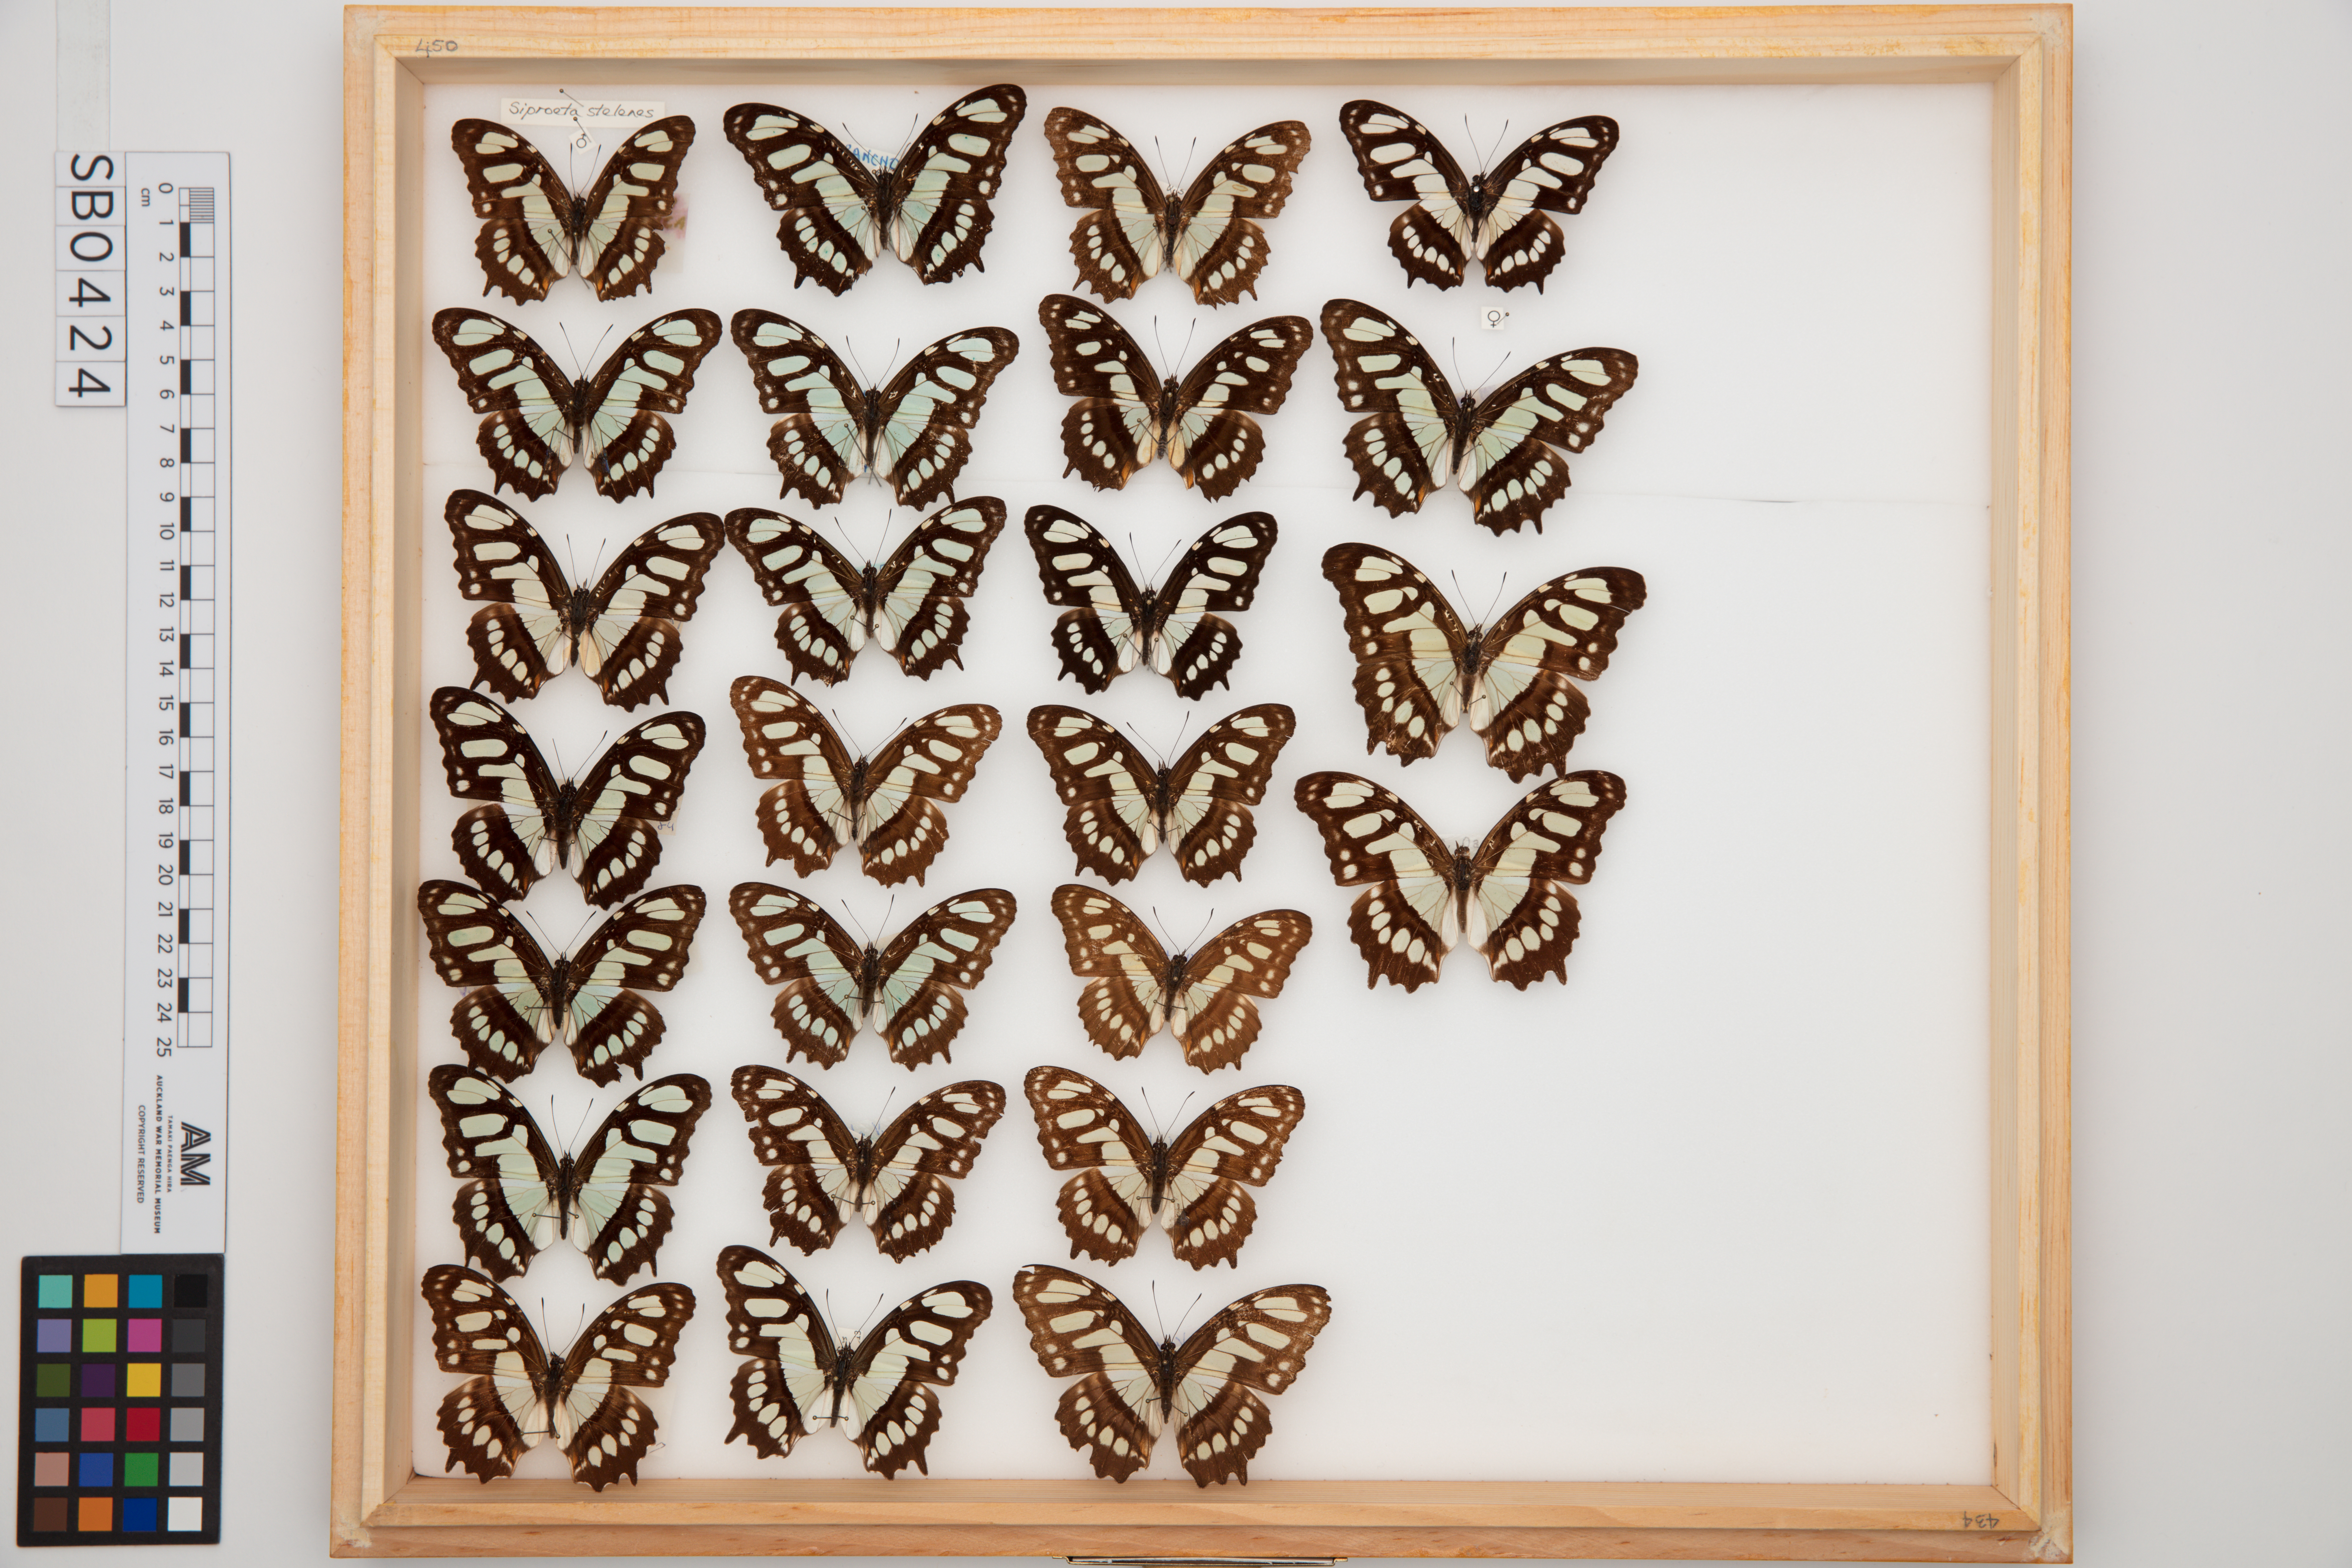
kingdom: Animalia
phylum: Arthropoda
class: Insecta
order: Lepidoptera
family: Nymphalidae
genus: Siproeta
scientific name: Siproeta stelenes
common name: Malachite
